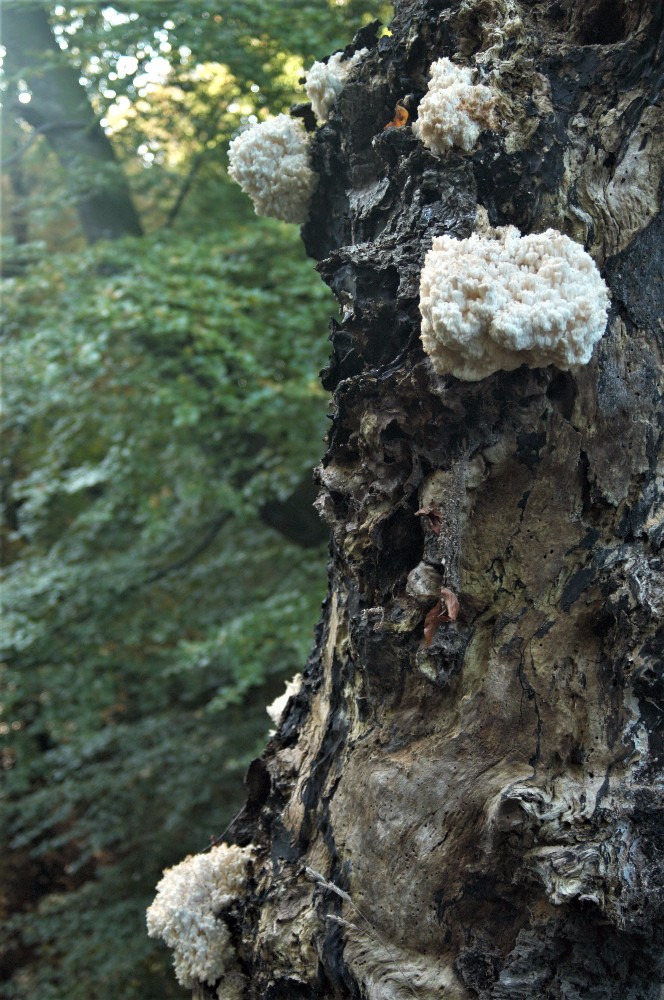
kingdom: Fungi
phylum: Basidiomycota
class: Agaricomycetes
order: Russulales
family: Hericiaceae
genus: Hericium
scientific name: Hericium coralloides
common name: koralpigsvamp
